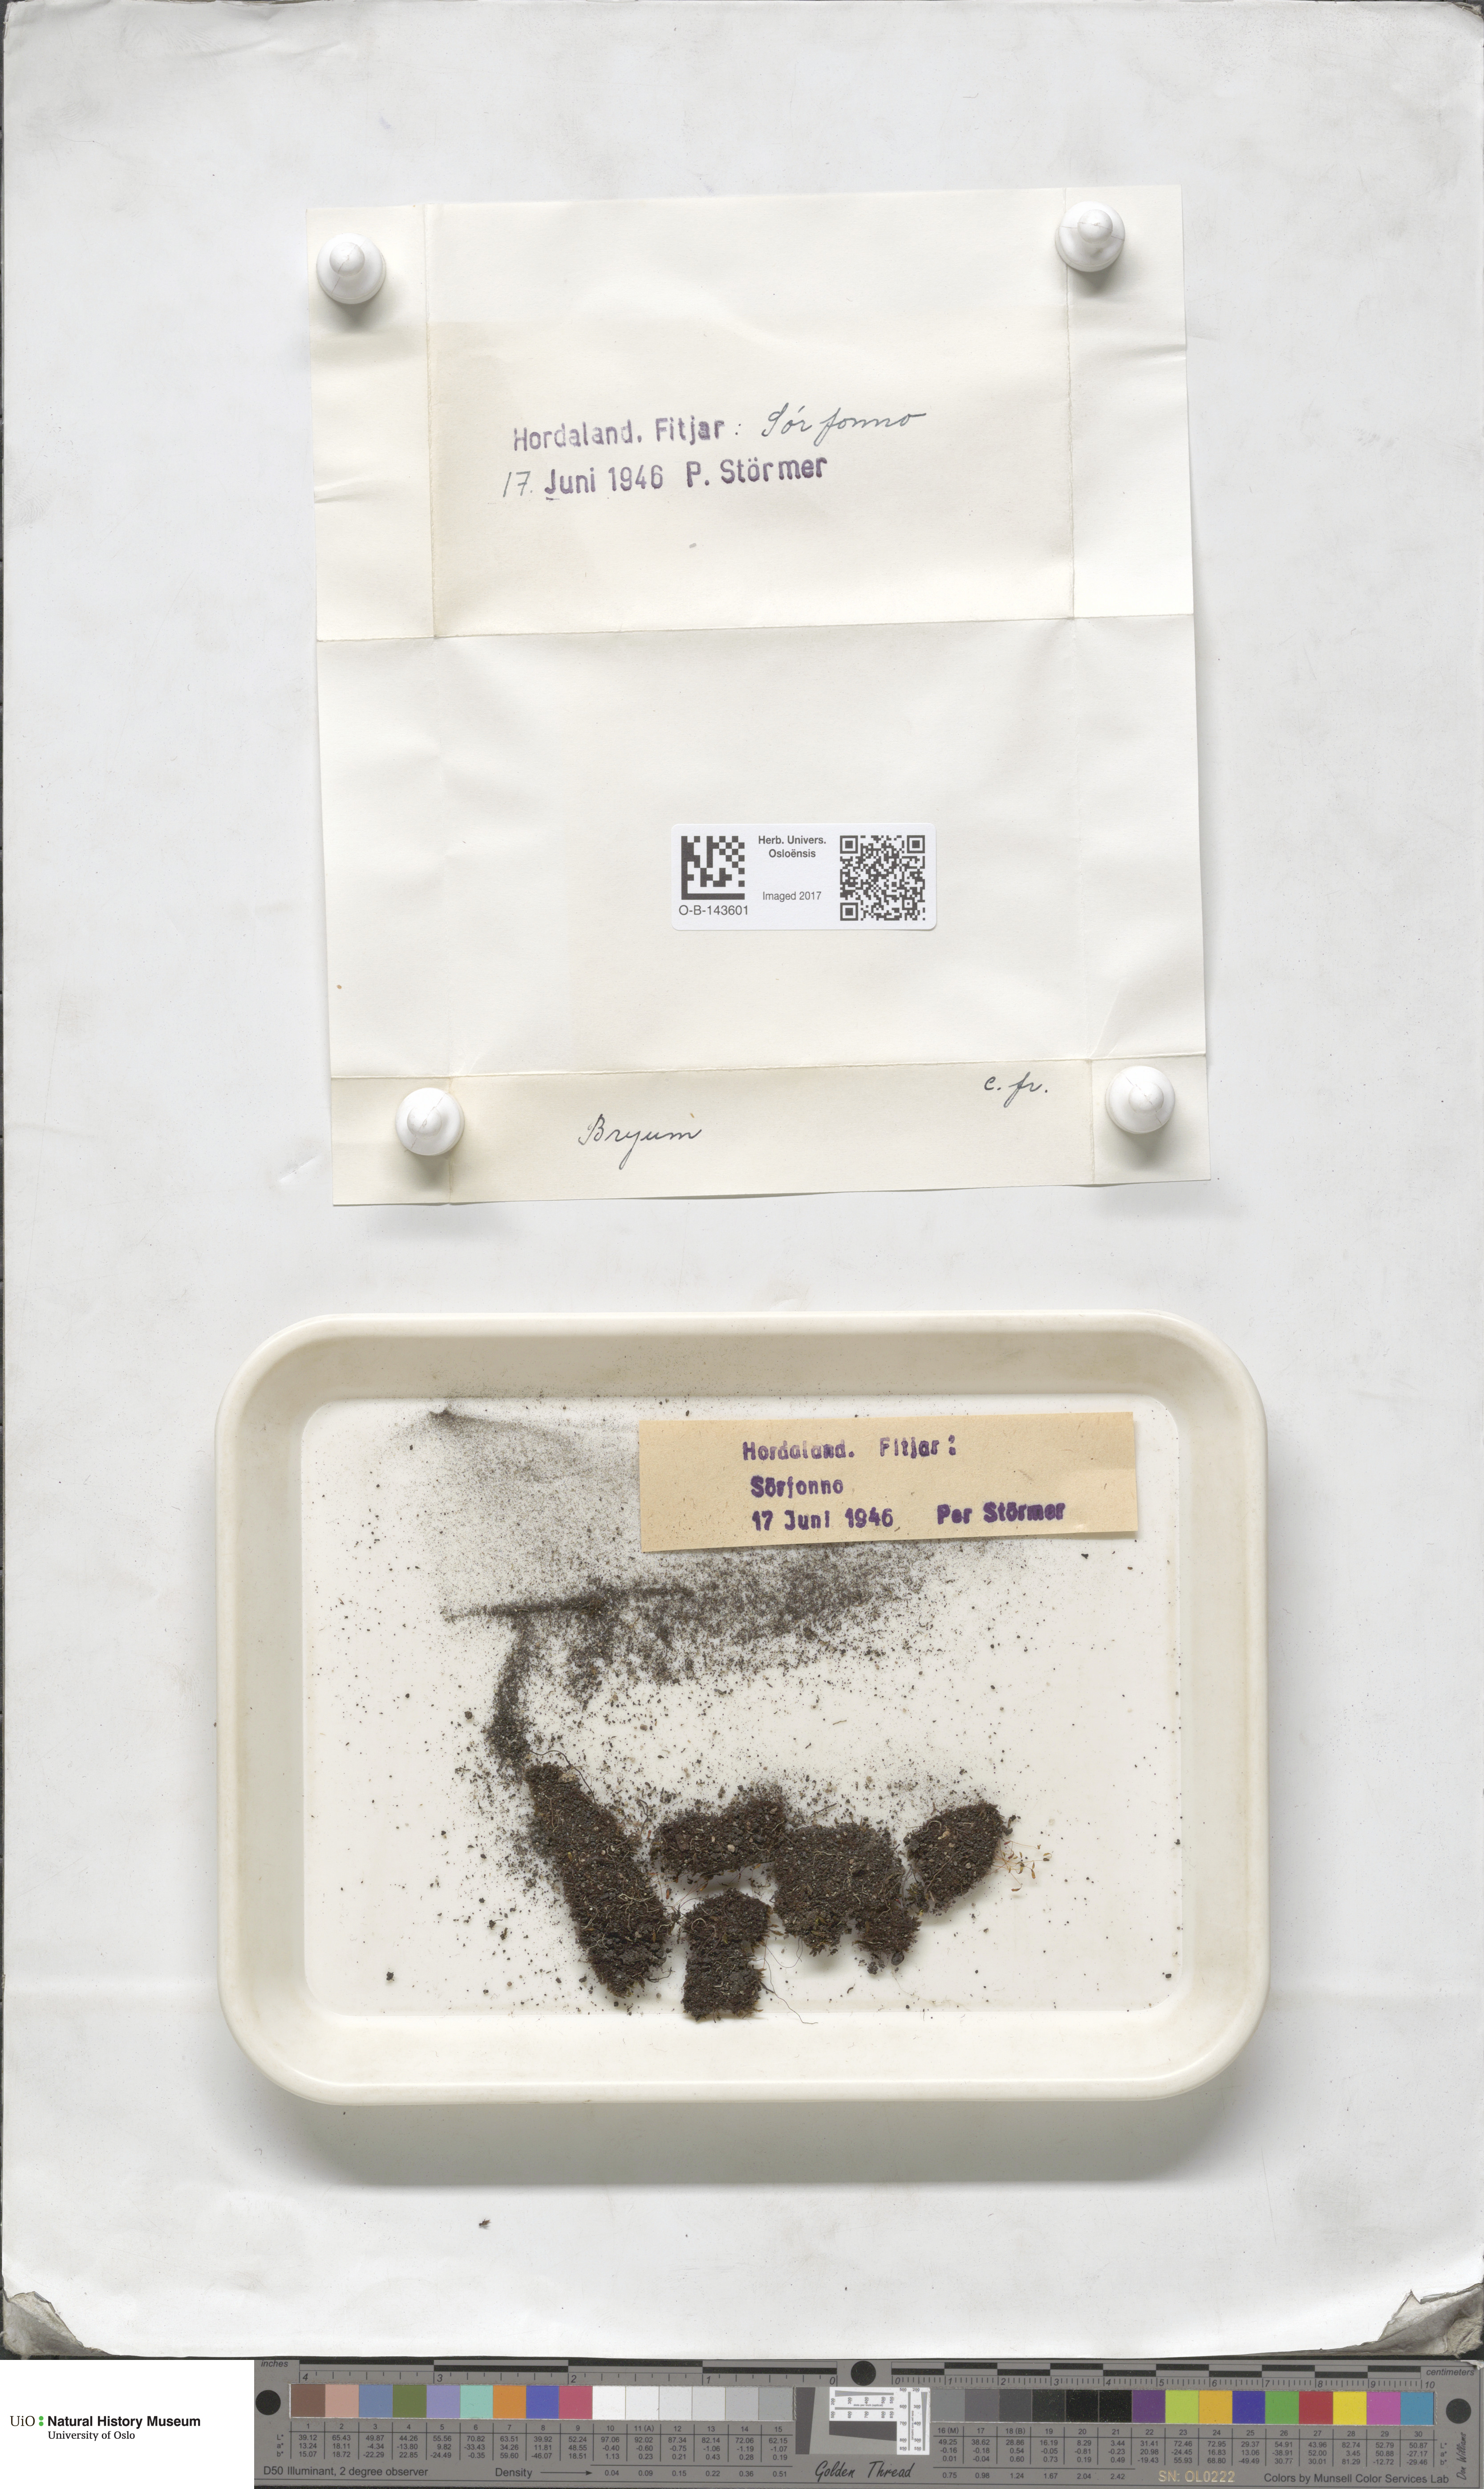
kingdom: Plantae
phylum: Bryophyta
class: Bryopsida
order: Bryales
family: Bryaceae
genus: Bryum
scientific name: Bryum
